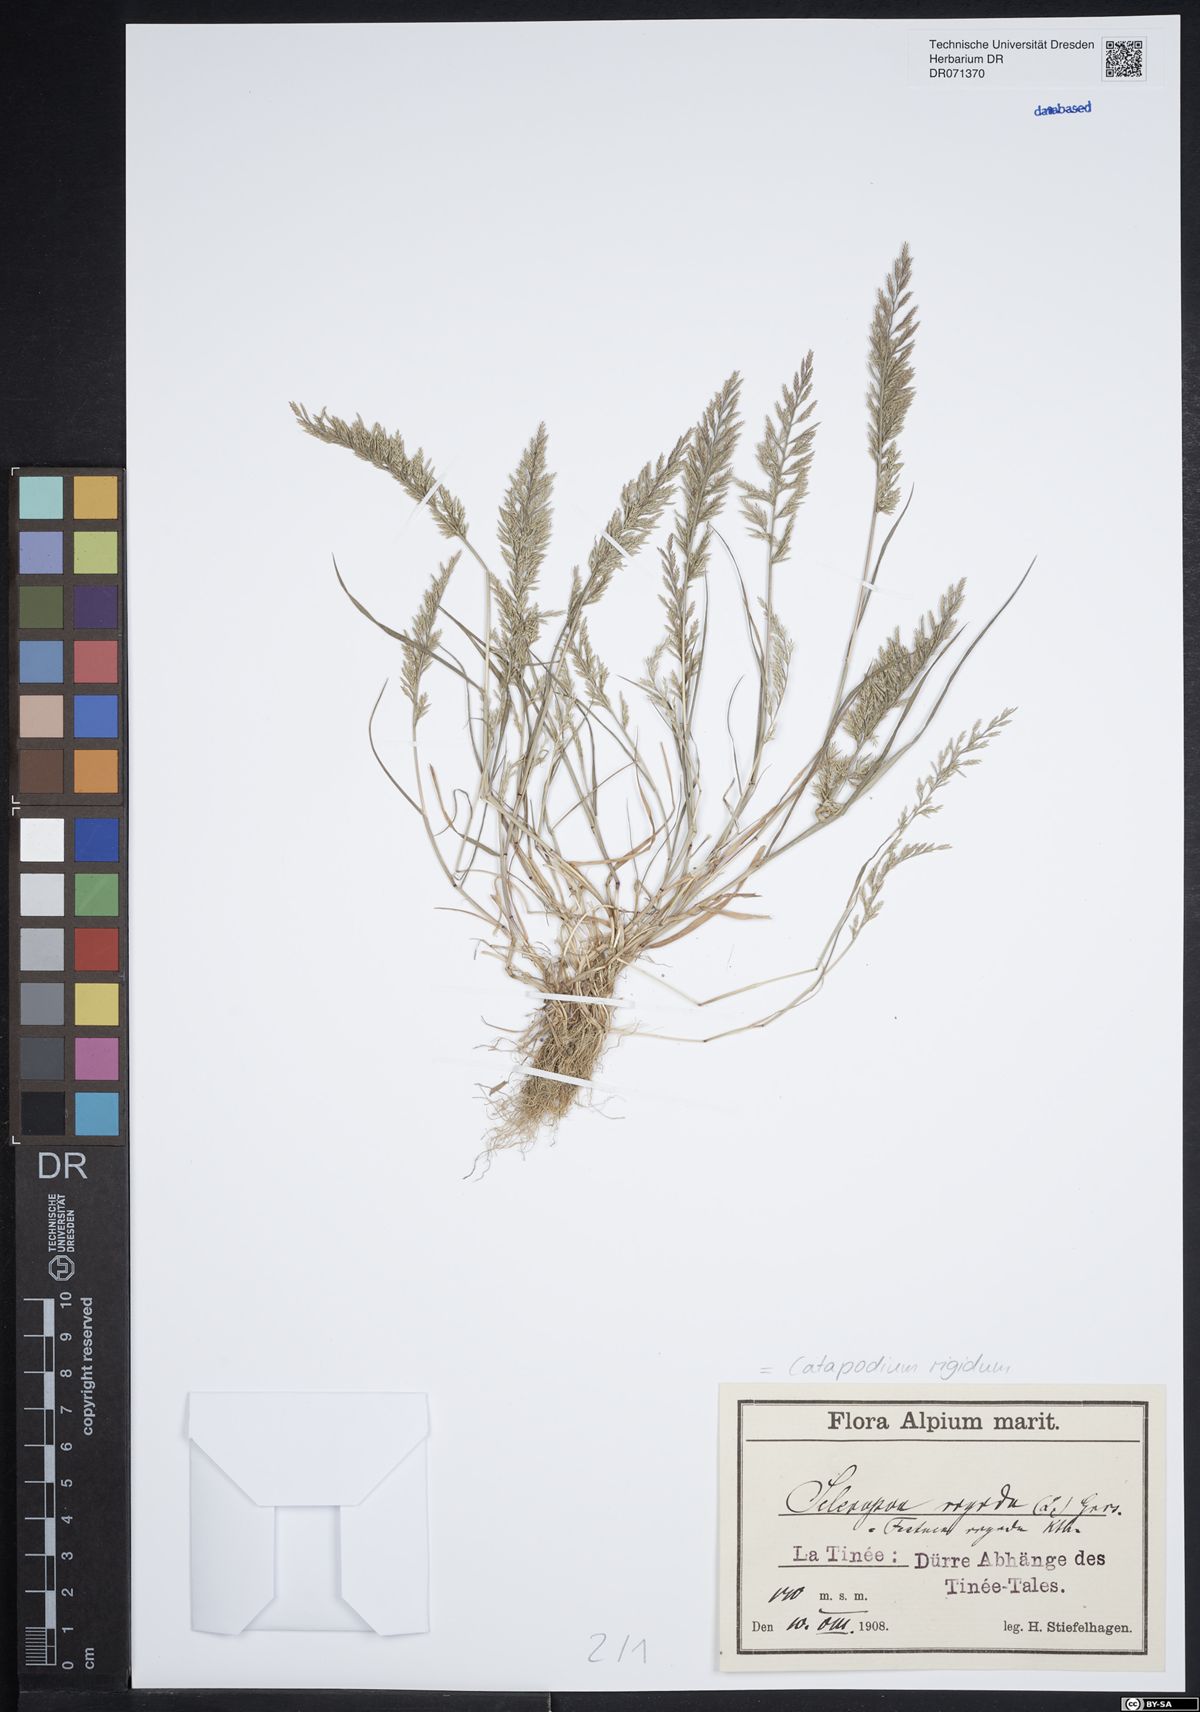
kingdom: Plantae
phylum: Tracheophyta
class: Liliopsida
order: Poales
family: Poaceae
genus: Catapodium
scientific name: Catapodium rigidum
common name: Fern-grass
